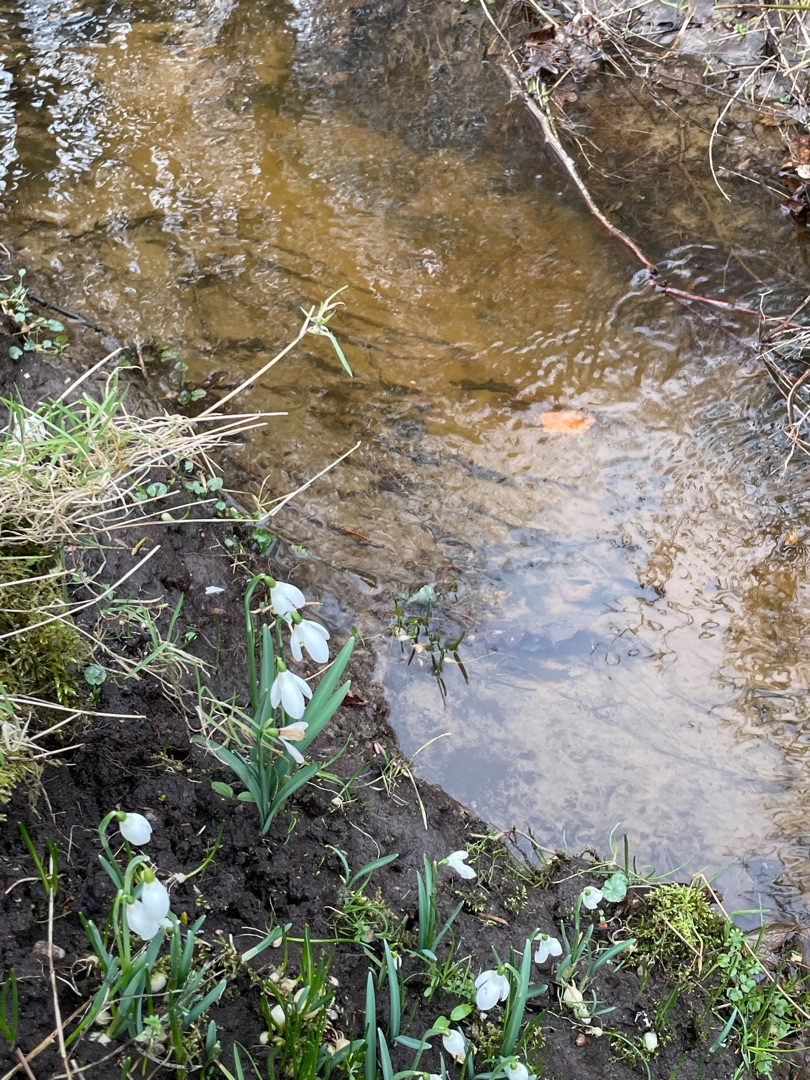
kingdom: Plantae
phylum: Tracheophyta
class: Liliopsida
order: Asparagales
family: Amaryllidaceae
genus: Galanthus
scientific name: Galanthus nivalis
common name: Vintergæk
